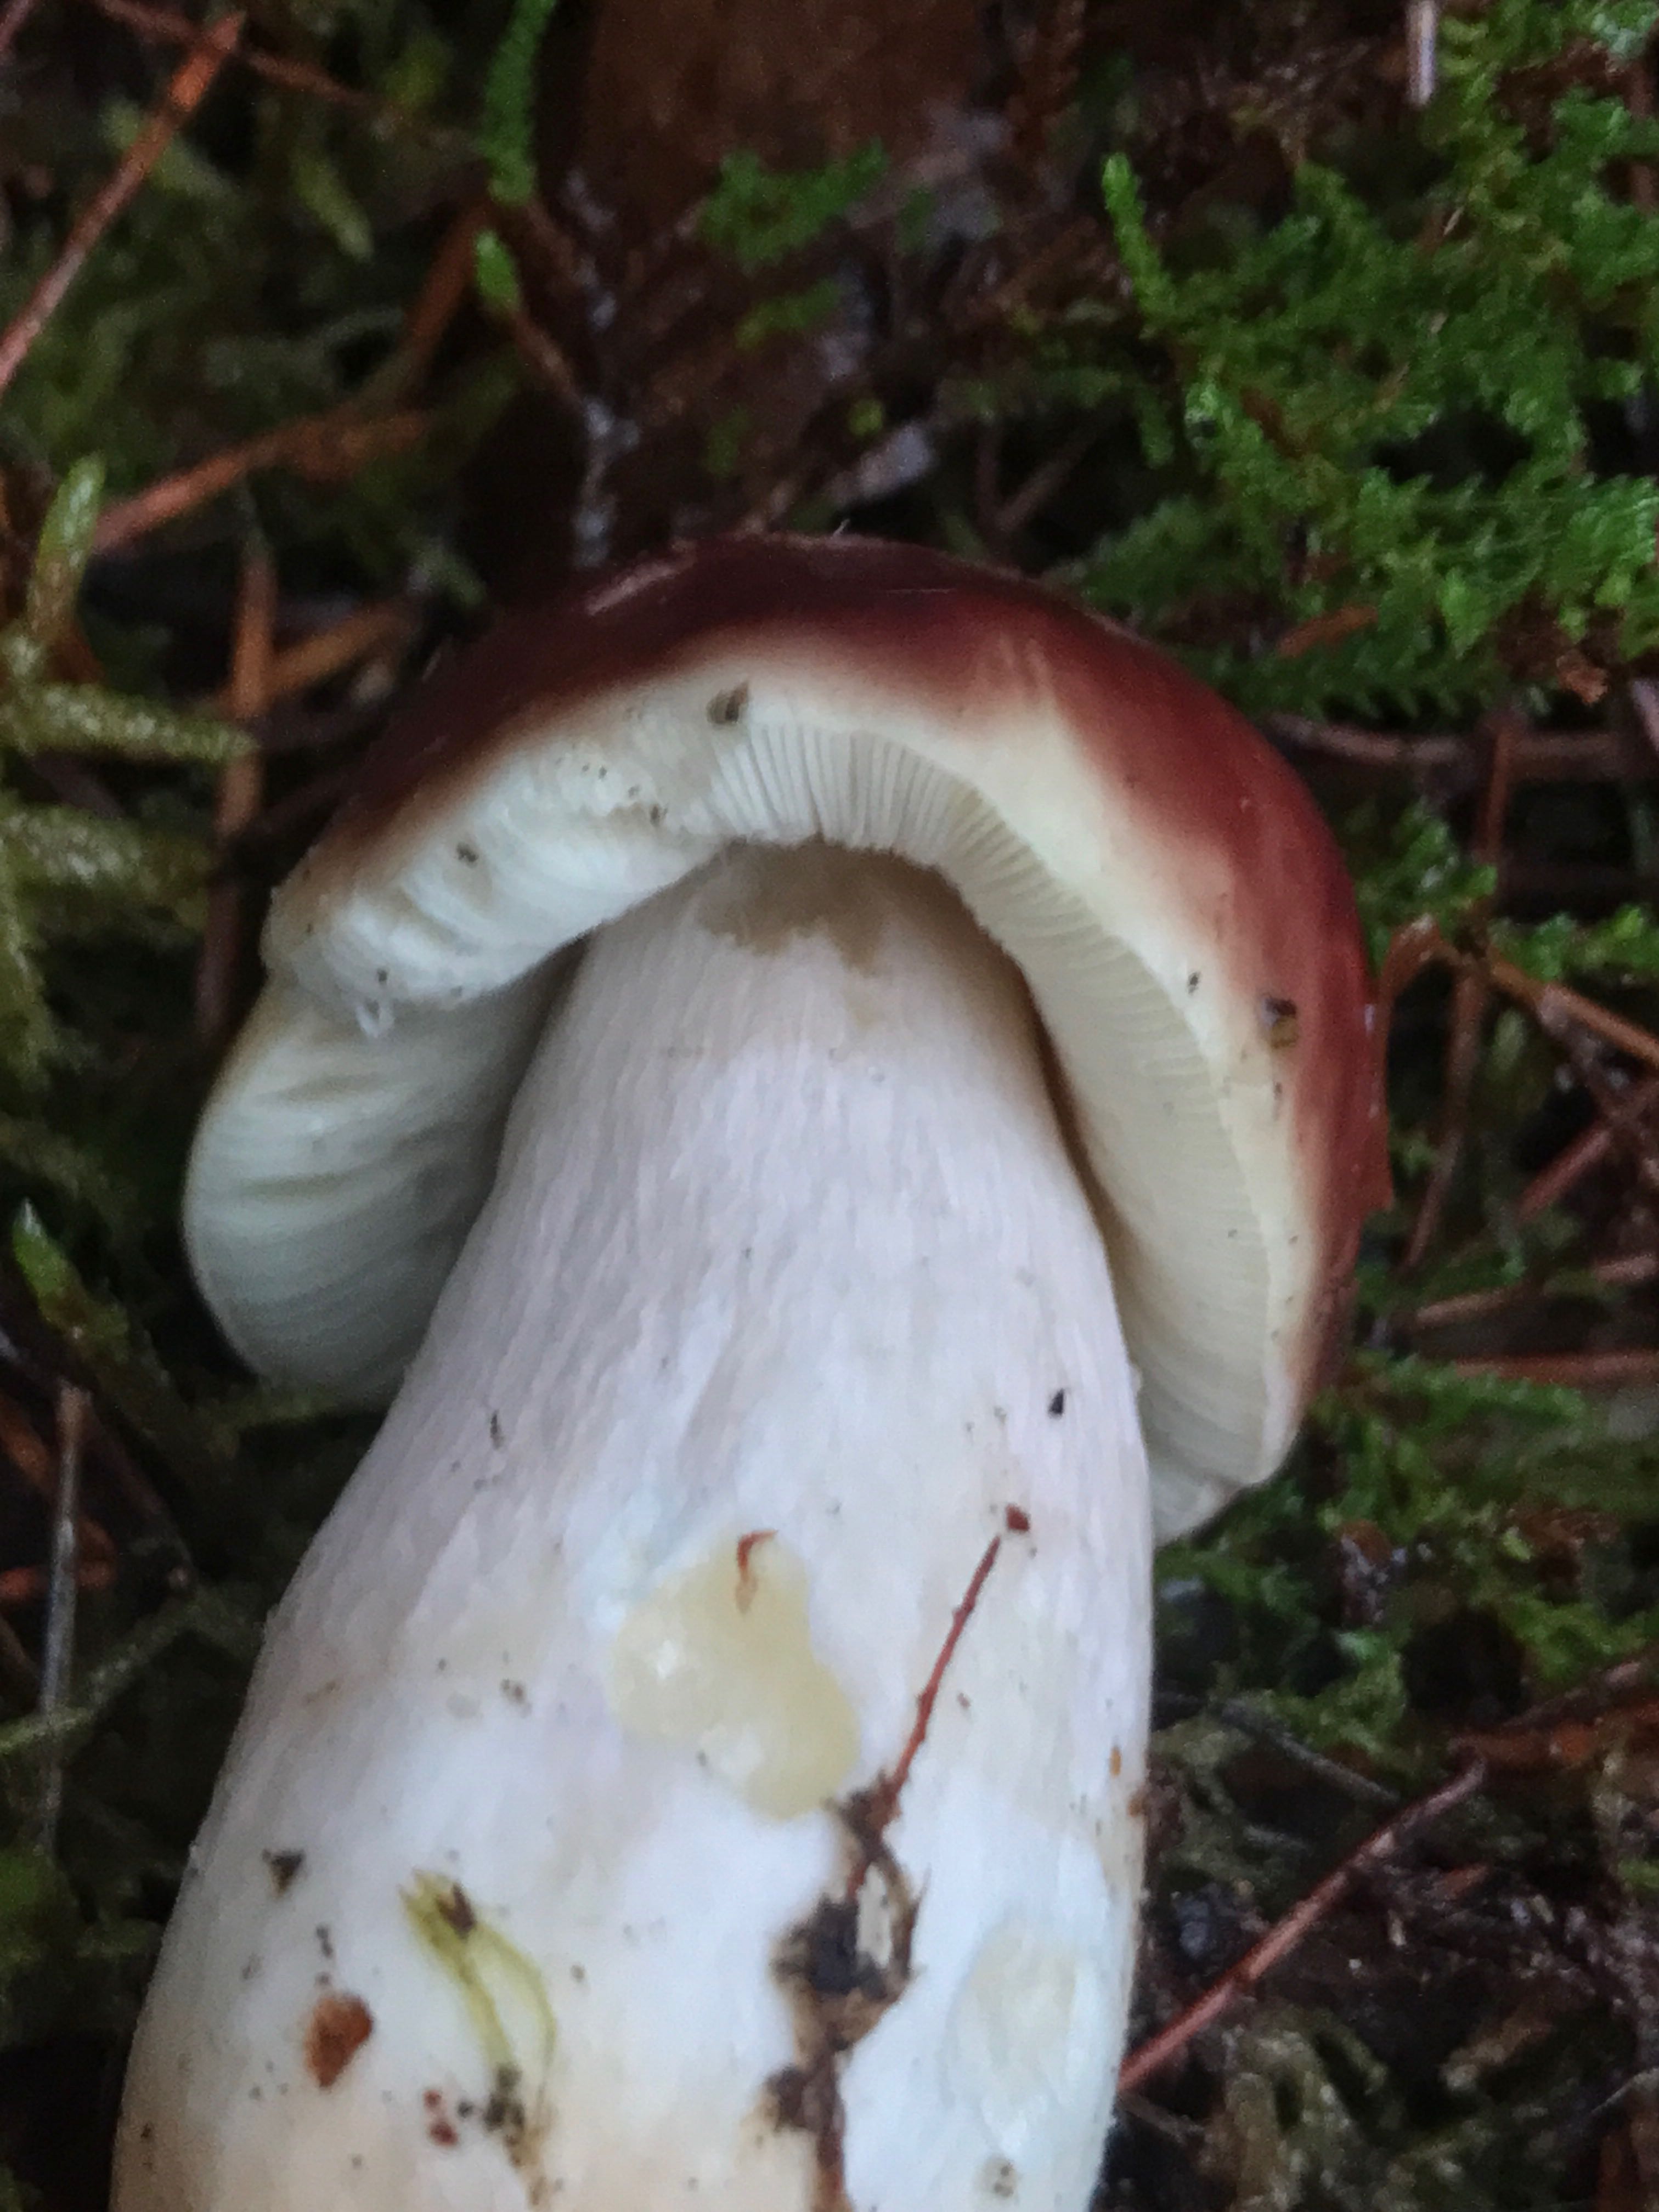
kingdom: Fungi
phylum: Basidiomycota
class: Agaricomycetes
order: Russulales
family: Russulaceae
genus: Russula
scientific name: Russula paludosa
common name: prægtig skørhat
